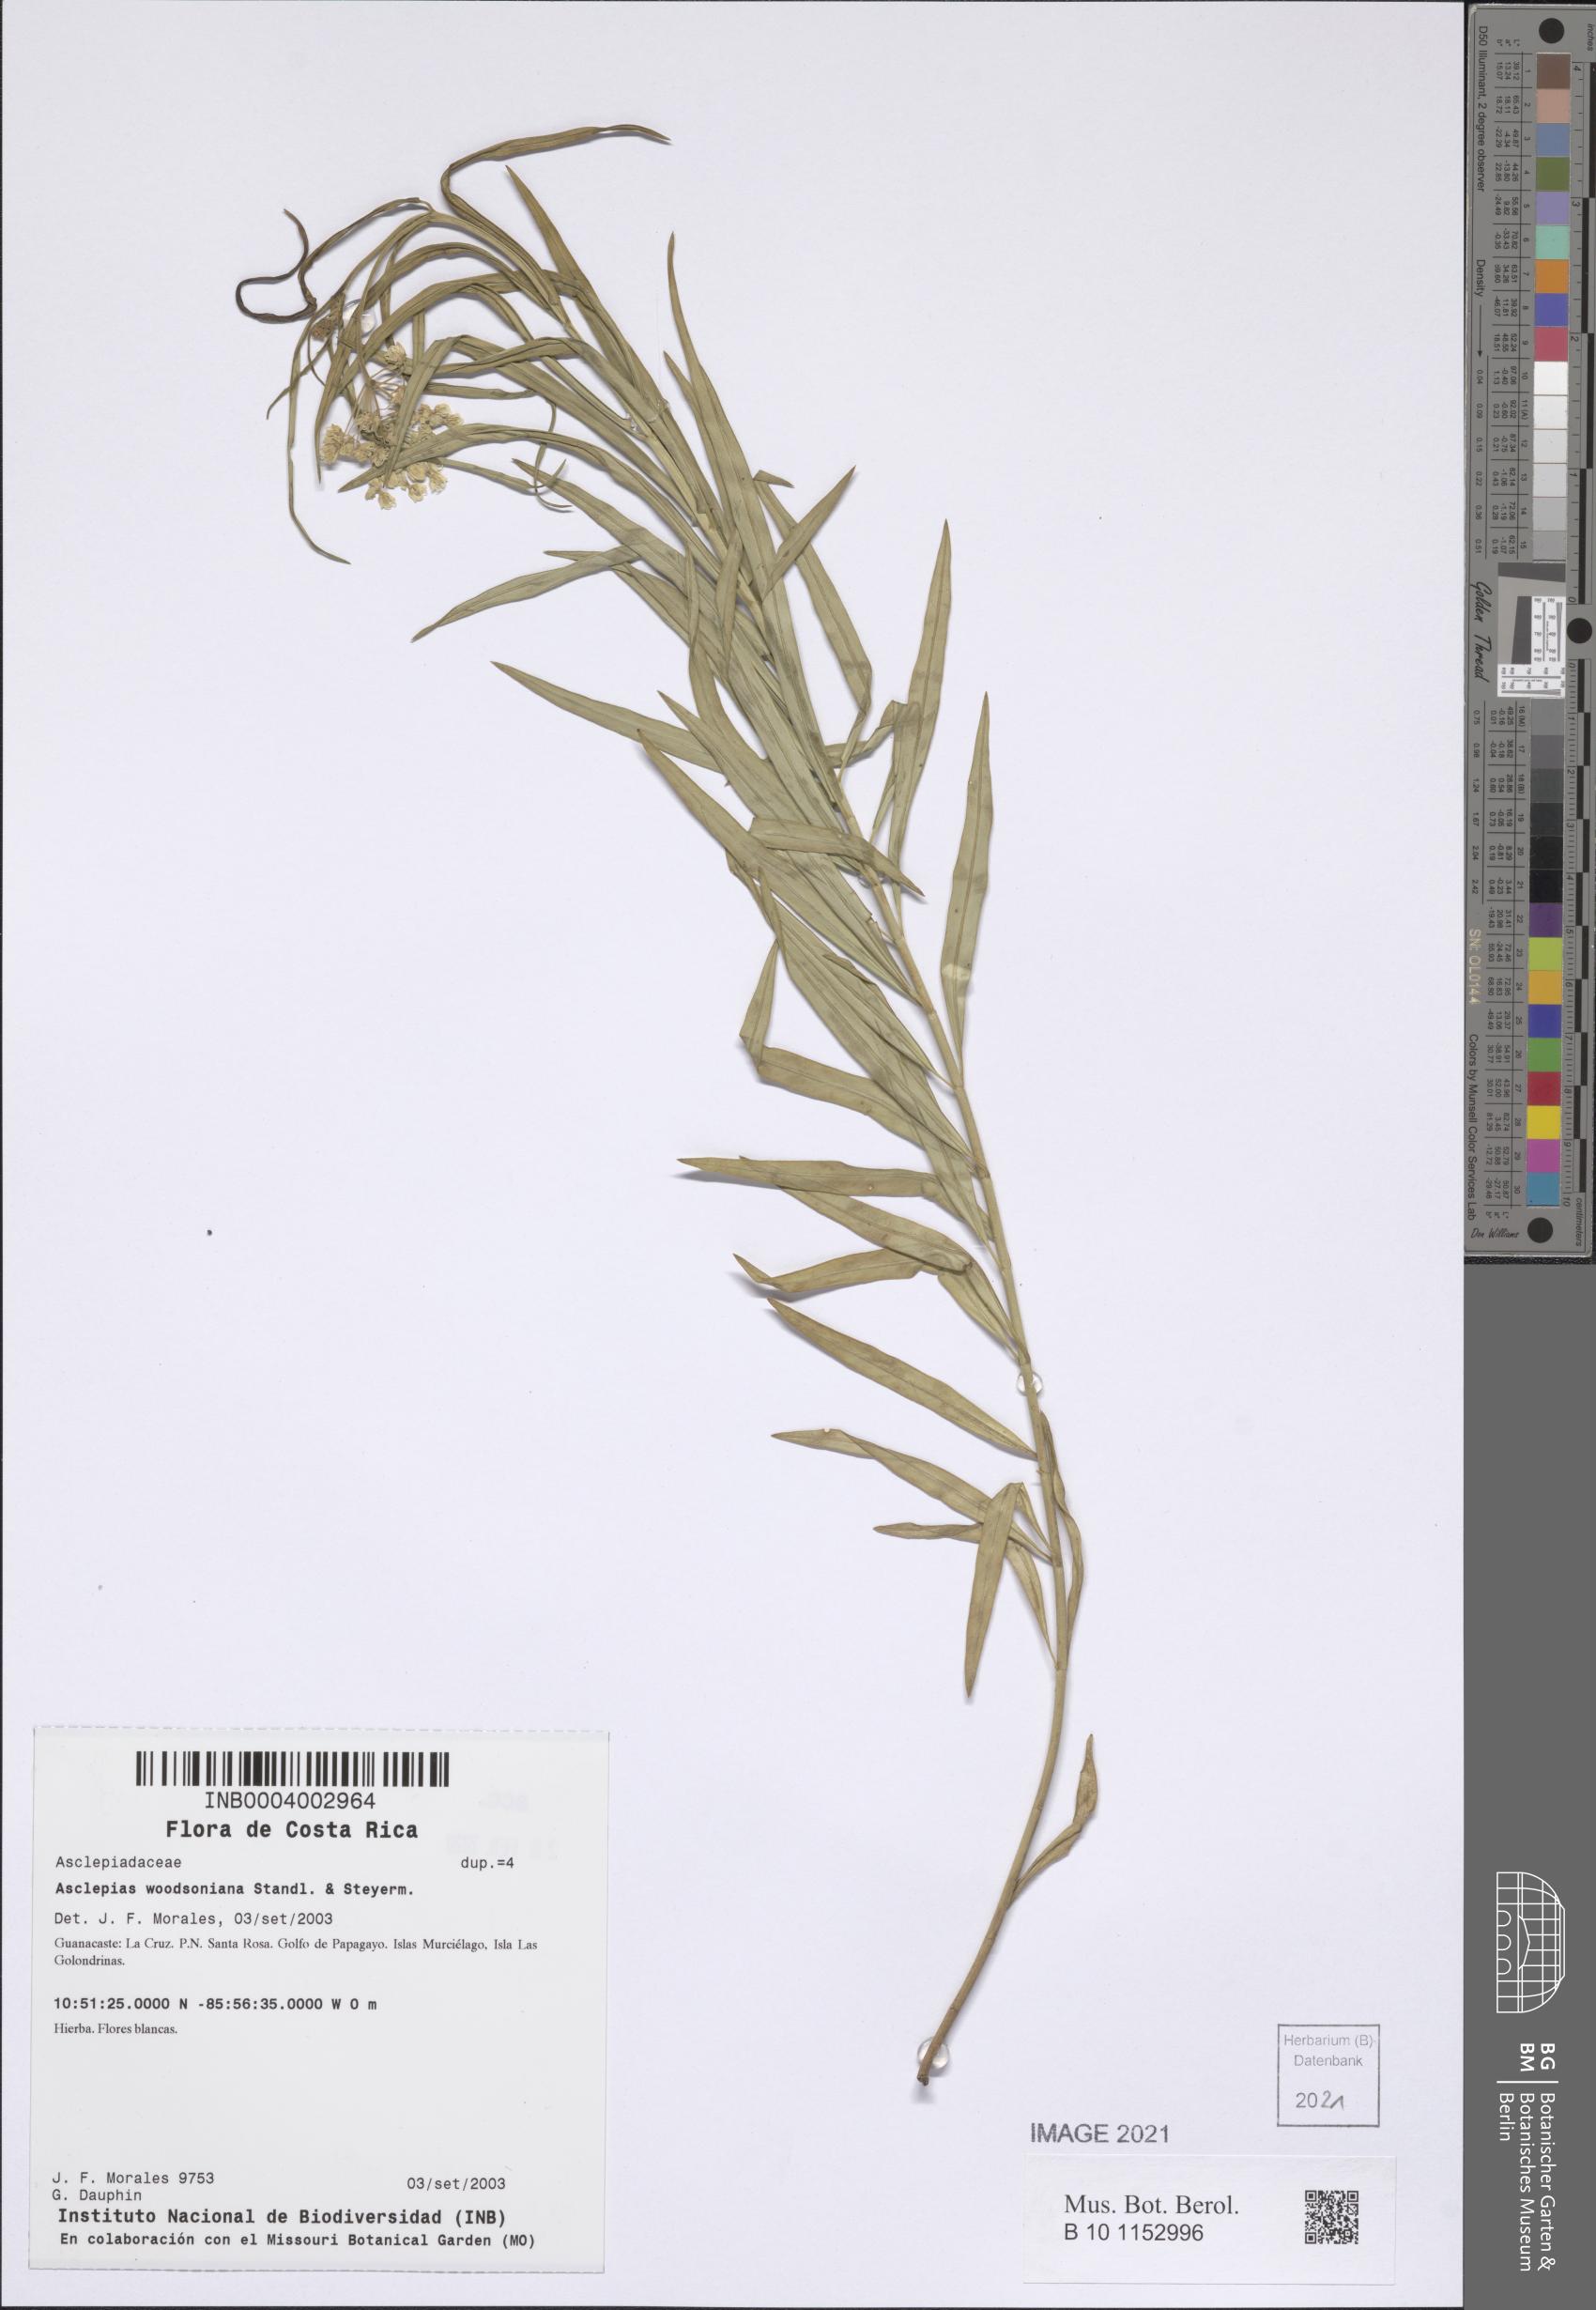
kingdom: Plantae
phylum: Tracheophyta
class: Magnoliopsida
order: Gentianales
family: Apocynaceae
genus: Asclepias
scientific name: Asclepias woodsoniana
